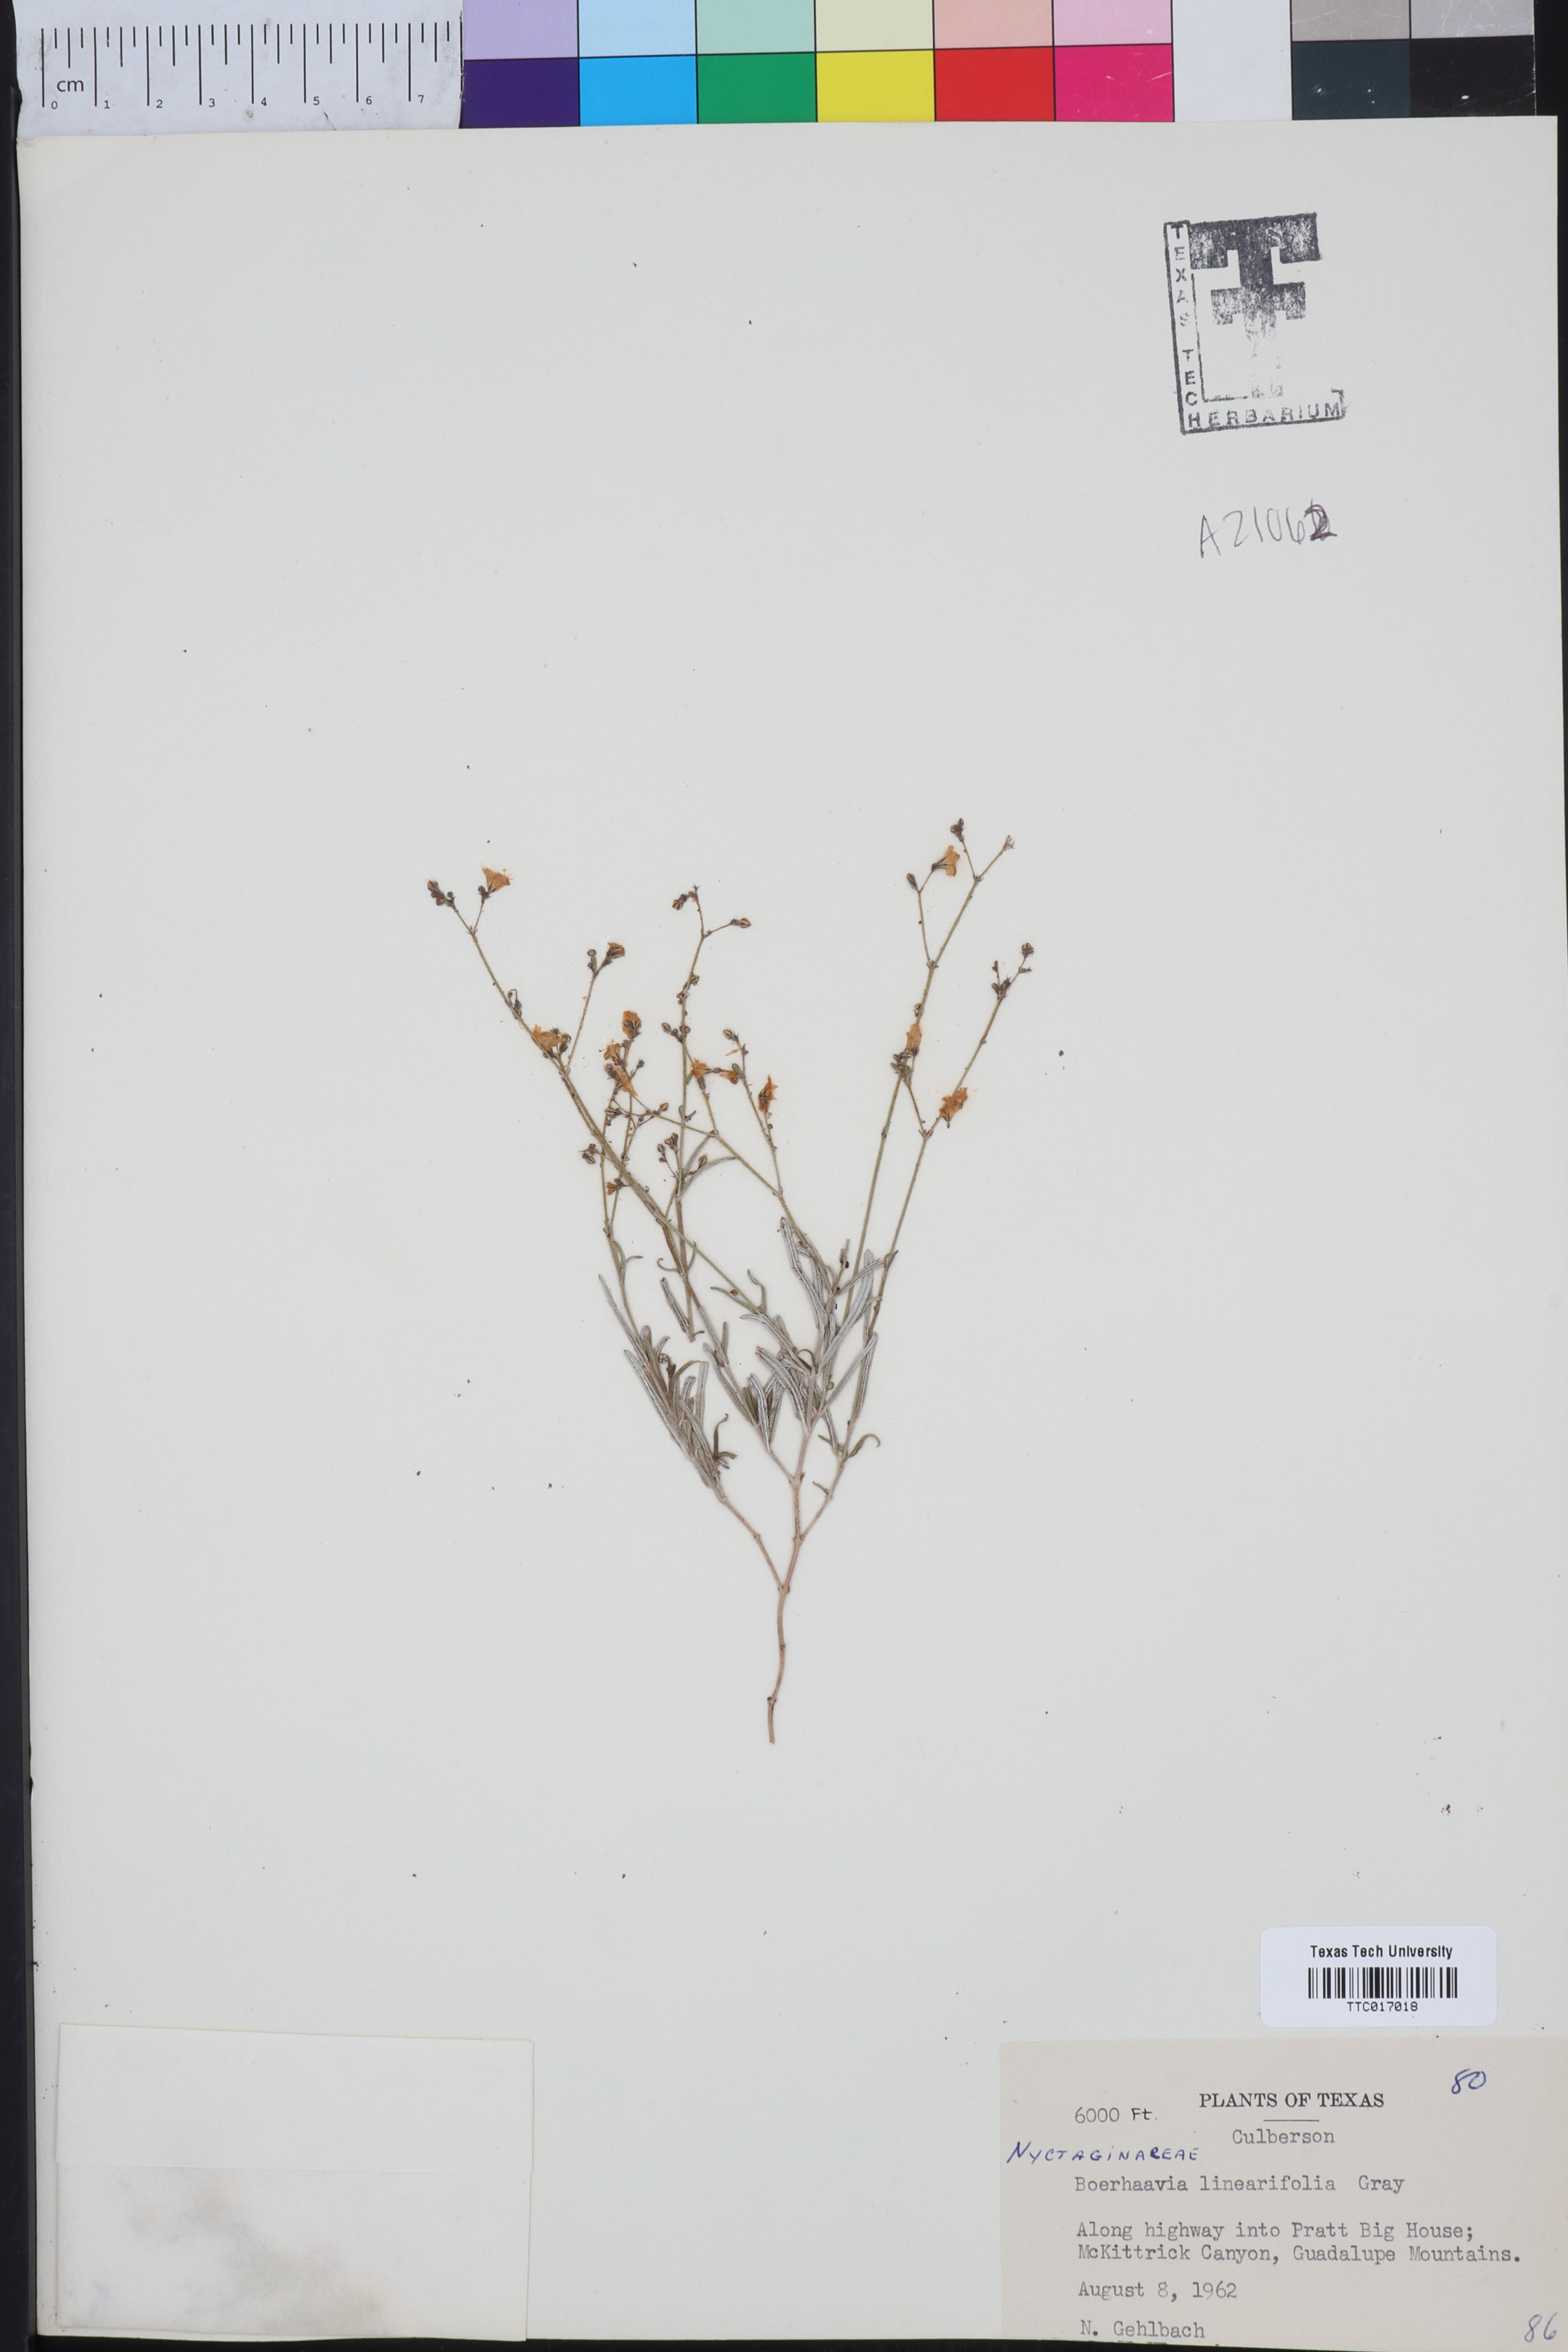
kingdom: Plantae
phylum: Tracheophyta
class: Magnoliopsida
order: Caryophyllales
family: Nyctaginaceae
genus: Boerhavia
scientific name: Boerhavia linearifolia
